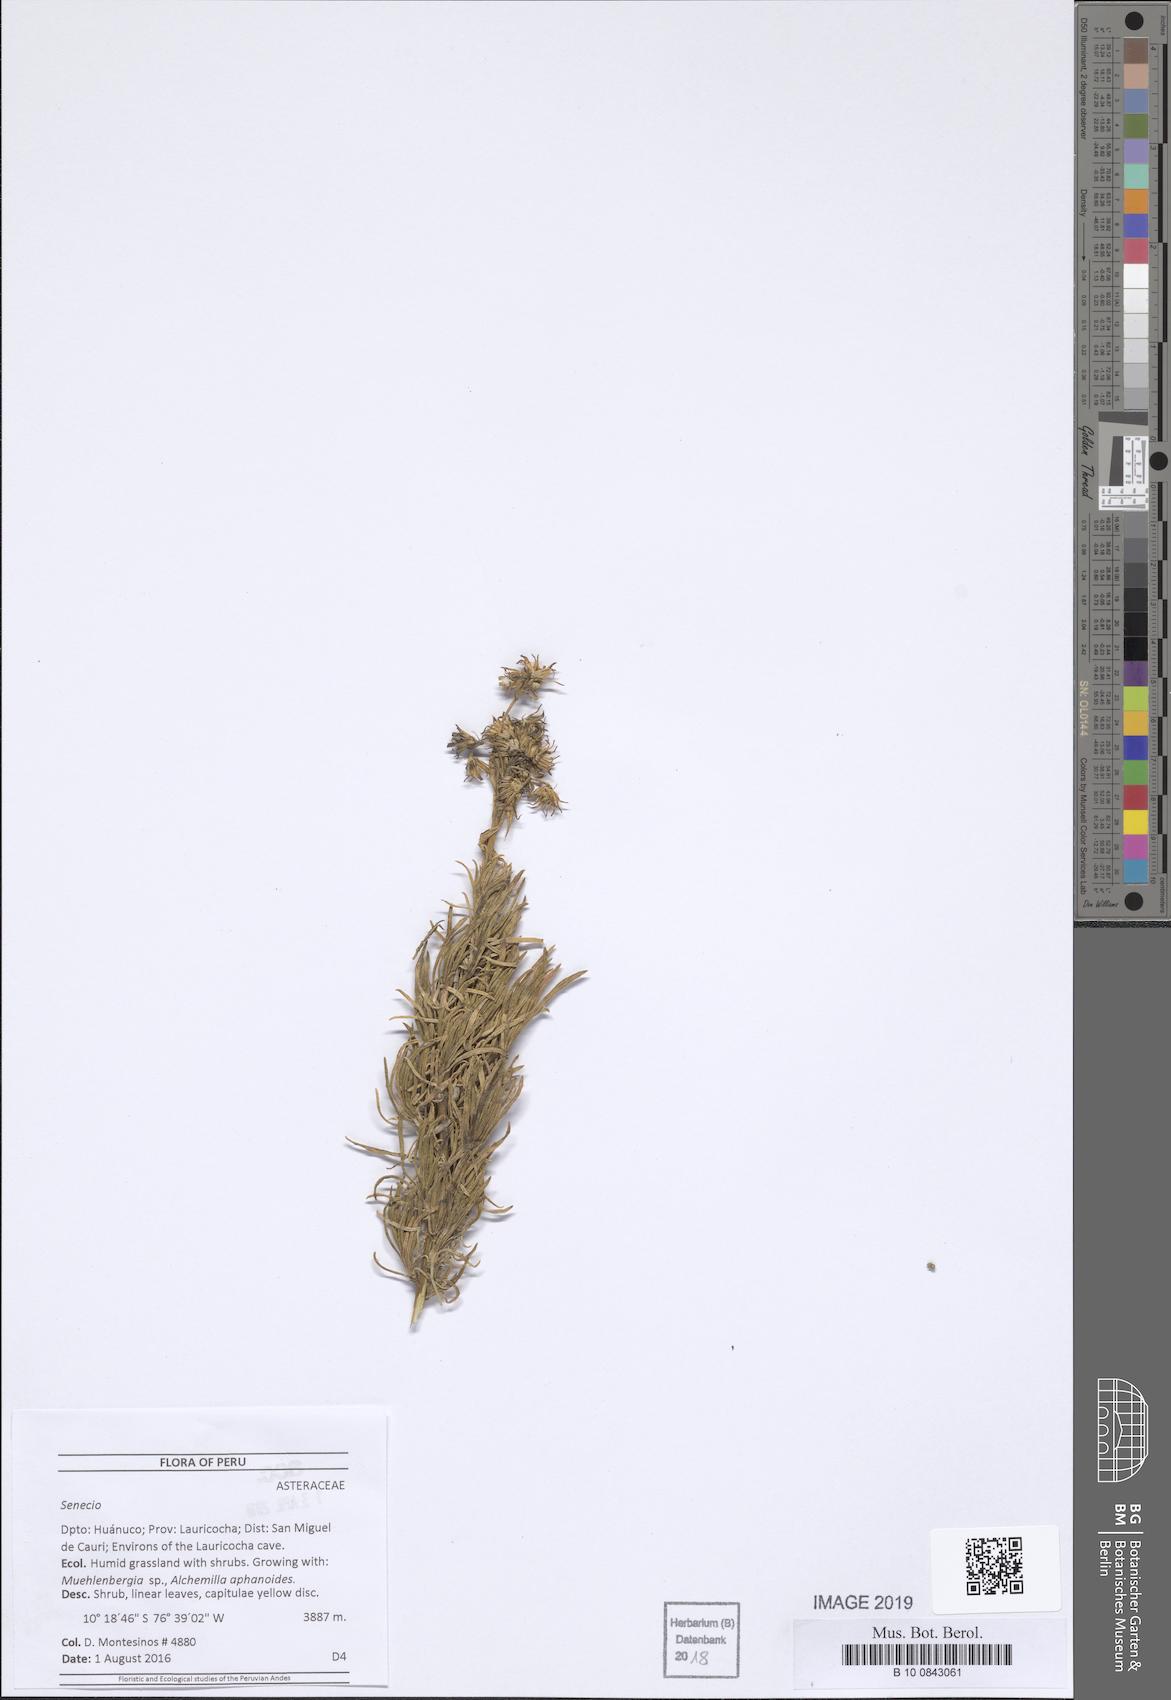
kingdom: Plantae
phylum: Tracheophyta
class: Magnoliopsida
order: Asterales
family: Asteraceae
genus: Senecio
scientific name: Senecio calcicola
